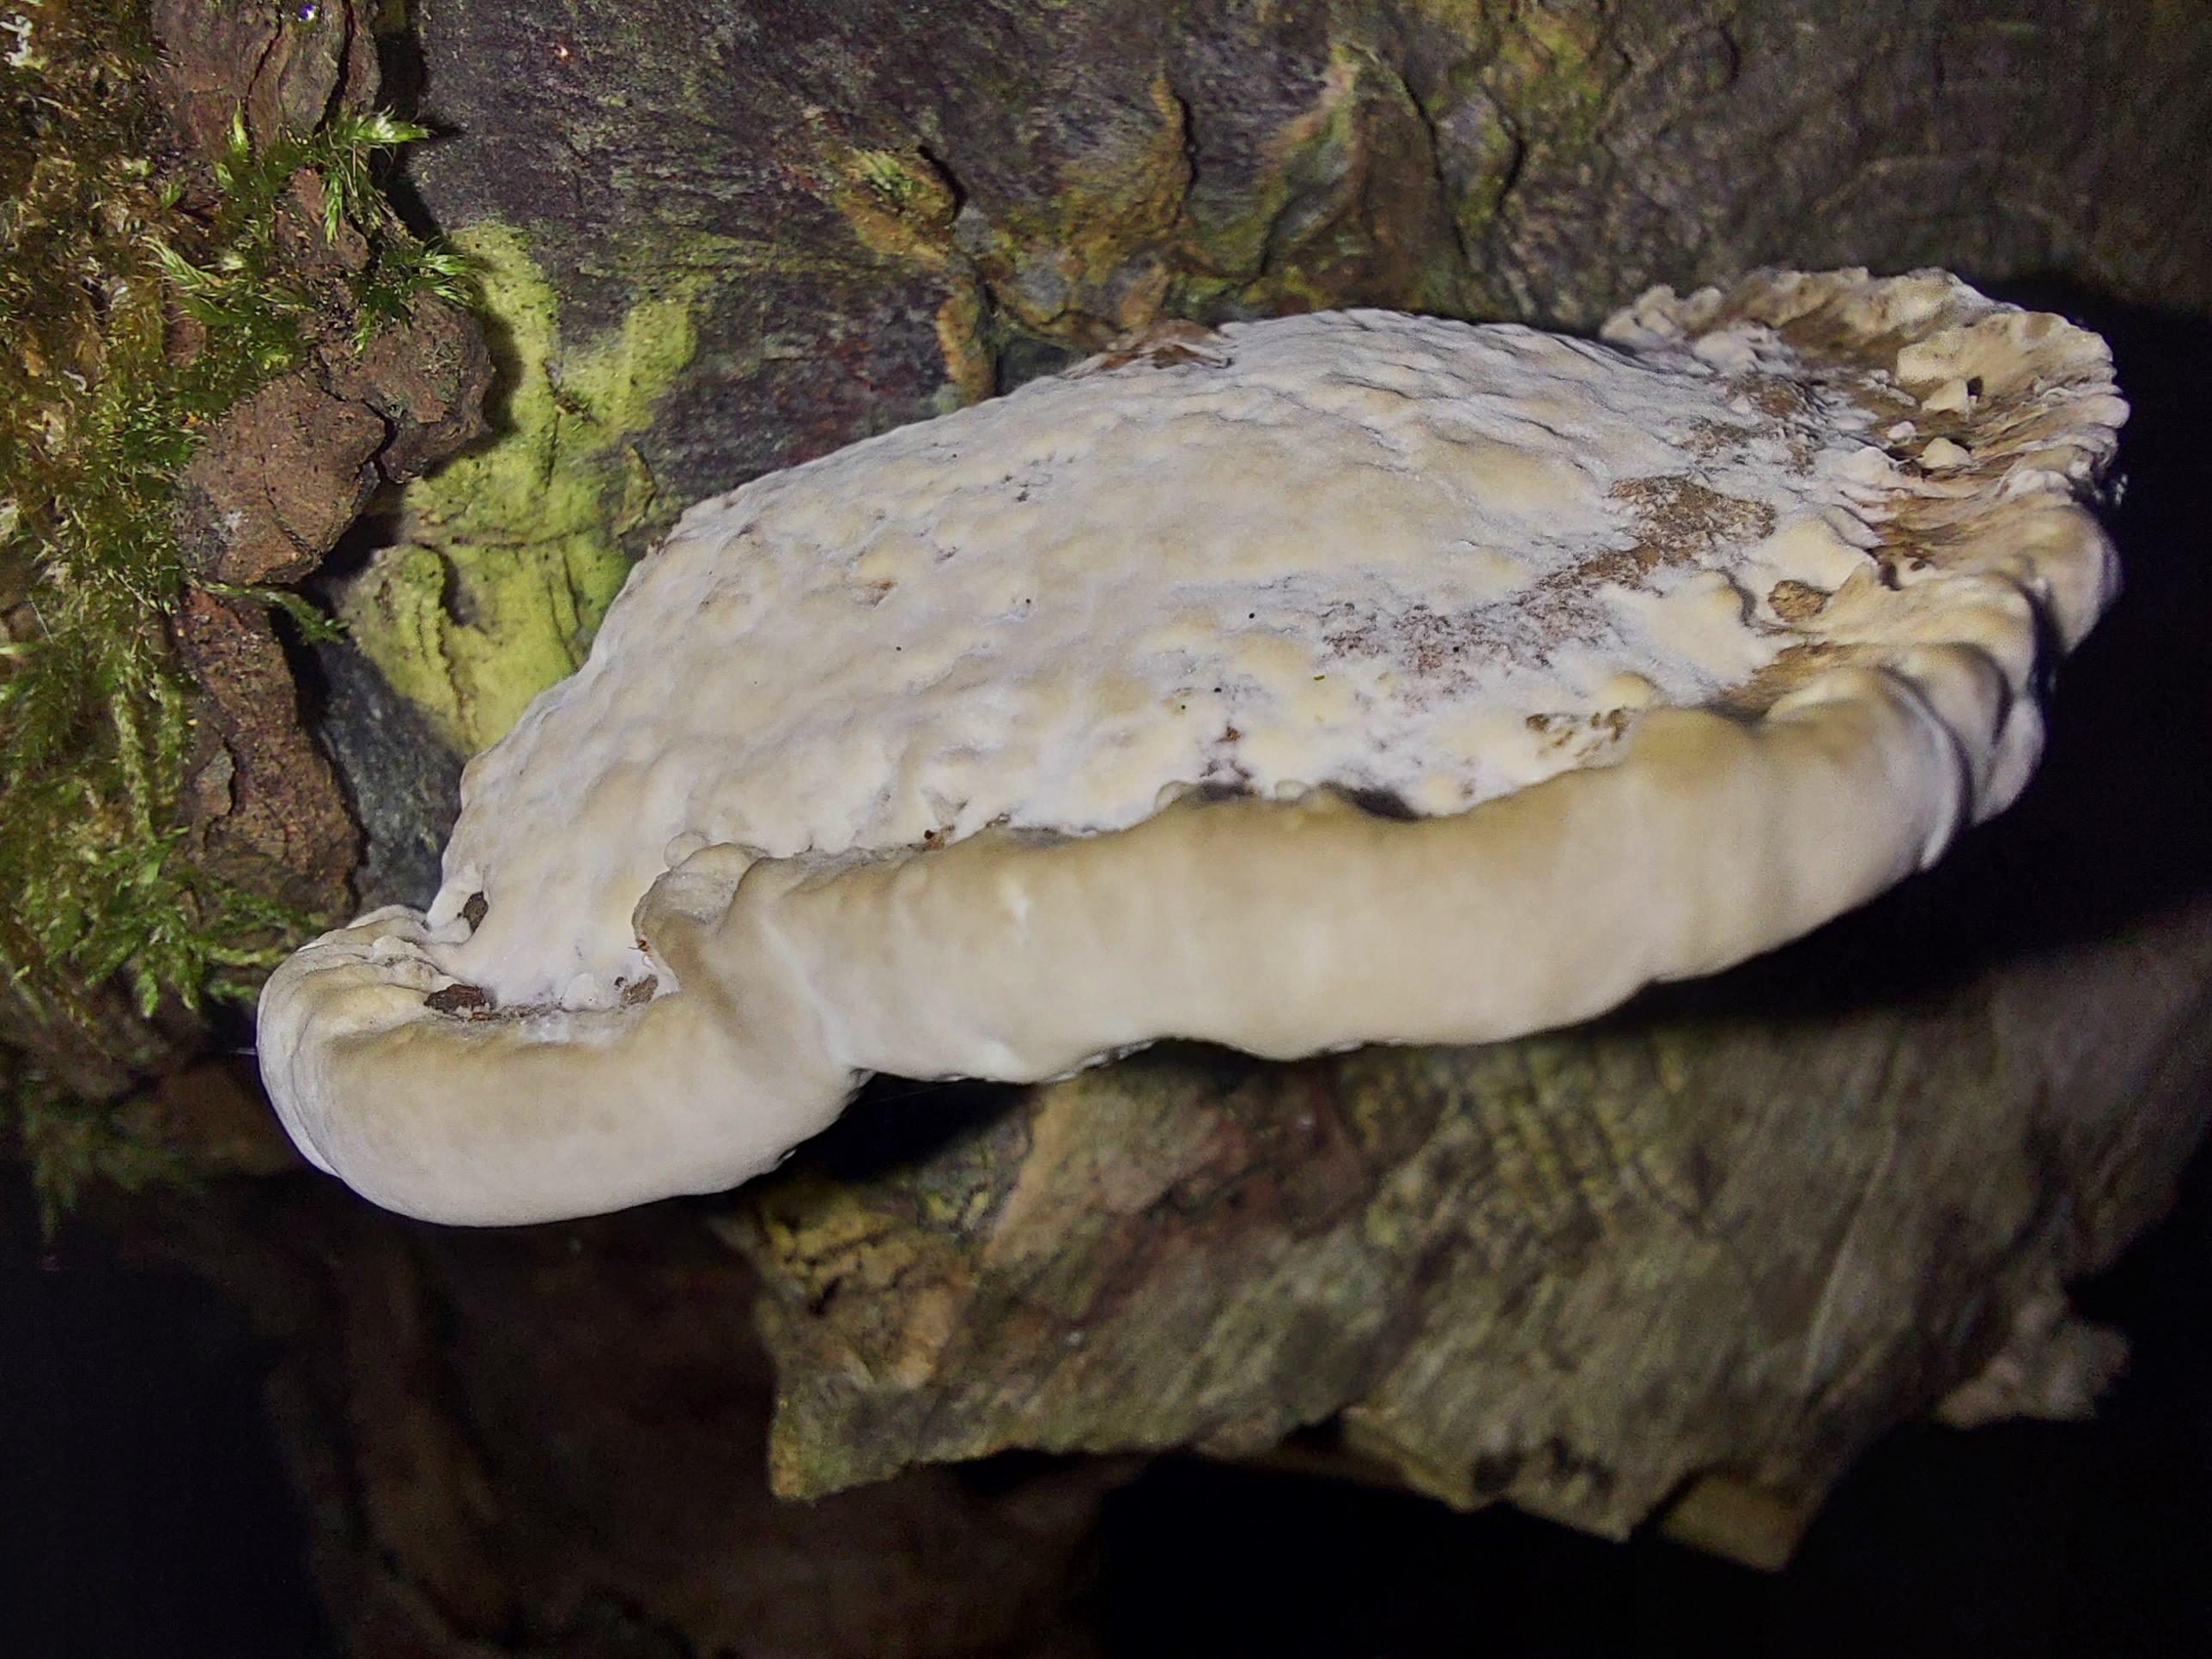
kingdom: Fungi
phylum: Basidiomycota
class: Agaricomycetes
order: Polyporales
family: Polyporaceae
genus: Daedaleopsis
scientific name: Daedaleopsis confragosa
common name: rødmende læderporesvamp
